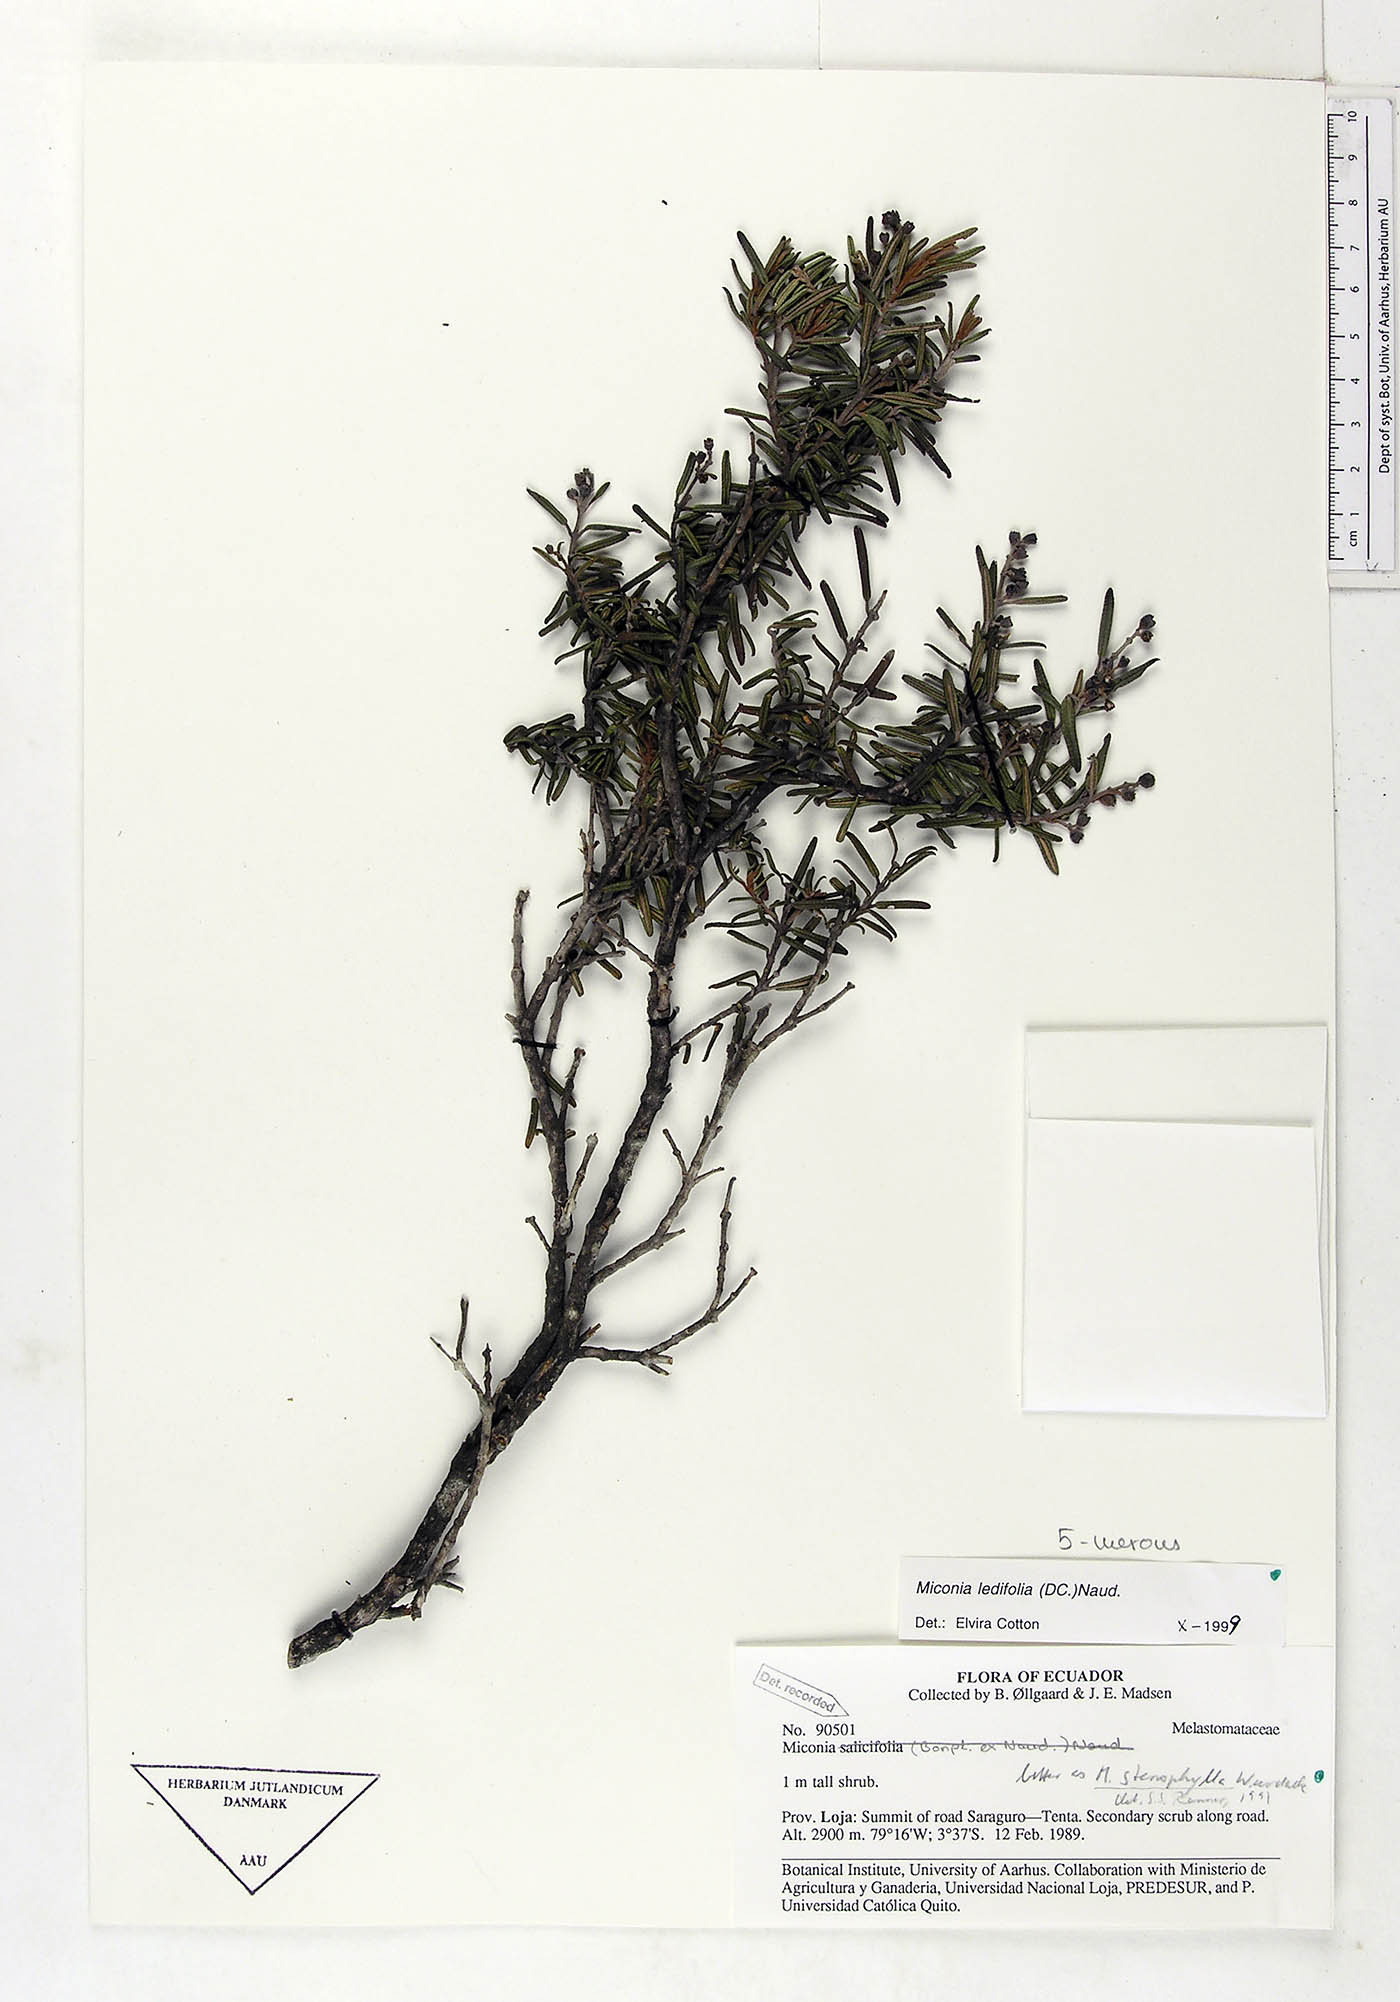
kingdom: Plantae
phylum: Tracheophyta
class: Magnoliopsida
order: Myrtales
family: Melastomataceae
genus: Miconia
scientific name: Miconia ledifolia
